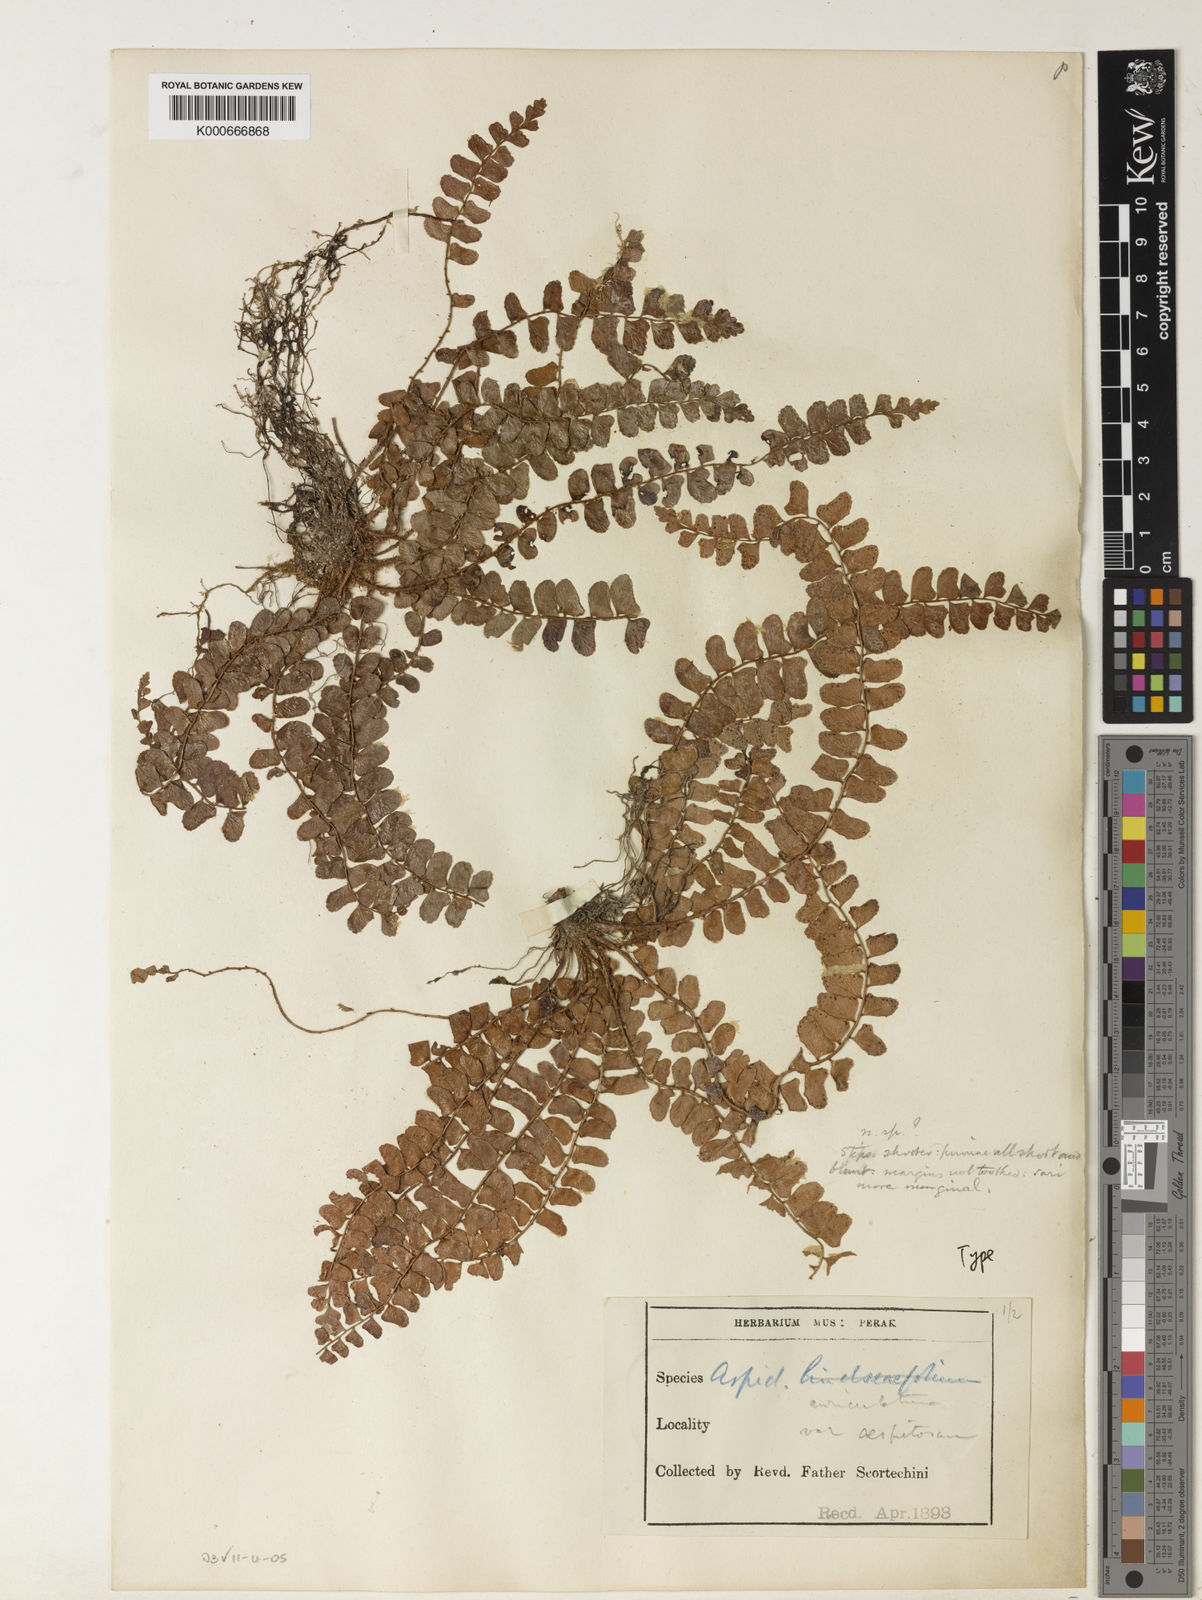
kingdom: Plantae
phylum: Tracheophyta
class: Polypodiopsida
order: Polypodiales
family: Dryopteridaceae
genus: Polystichum
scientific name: Polystichum lindseaefolium
